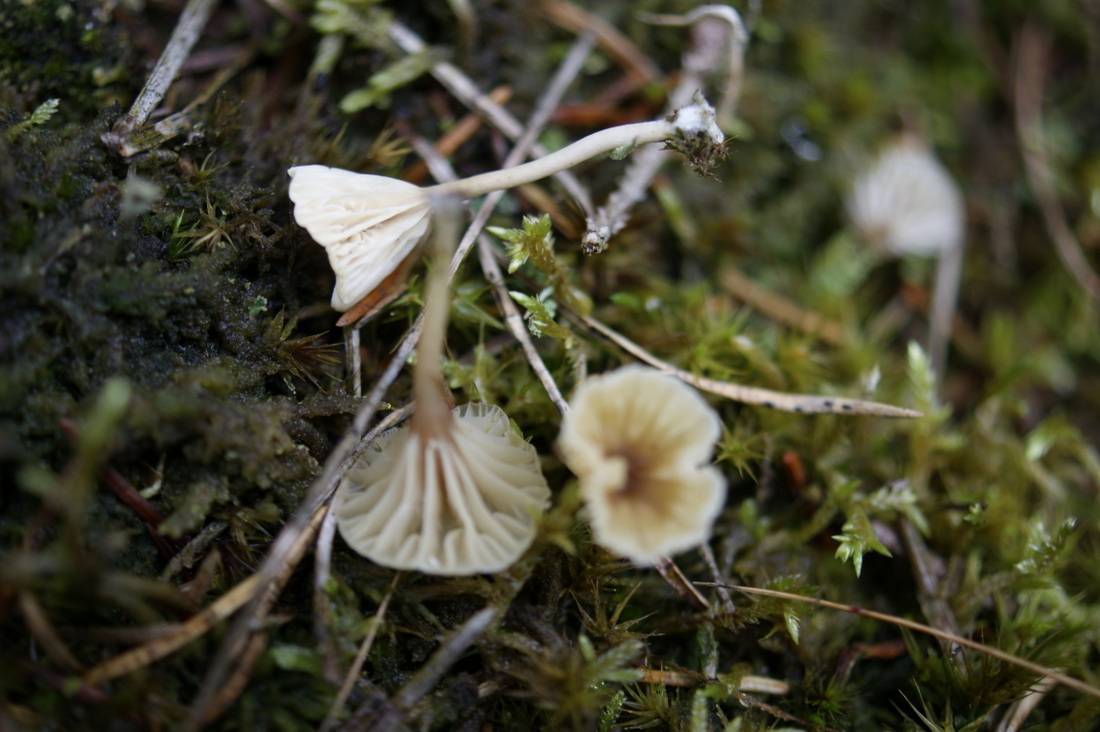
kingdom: Fungi
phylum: Basidiomycota
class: Agaricomycetes
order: Agaricales
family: Hygrophoraceae
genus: Lichenomphalia
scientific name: Lichenomphalia umbellifera
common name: tørve-lavhat
